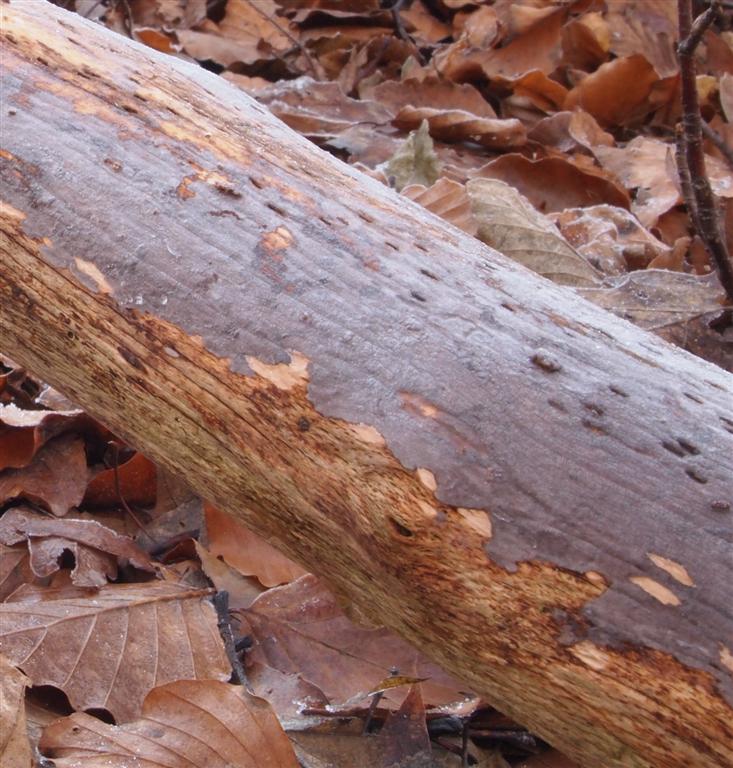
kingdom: Fungi
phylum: Basidiomycota
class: Agaricomycetes
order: Russulales
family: Peniophoraceae
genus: Peniophora
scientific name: Peniophora lycii
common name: grynet voksskind
